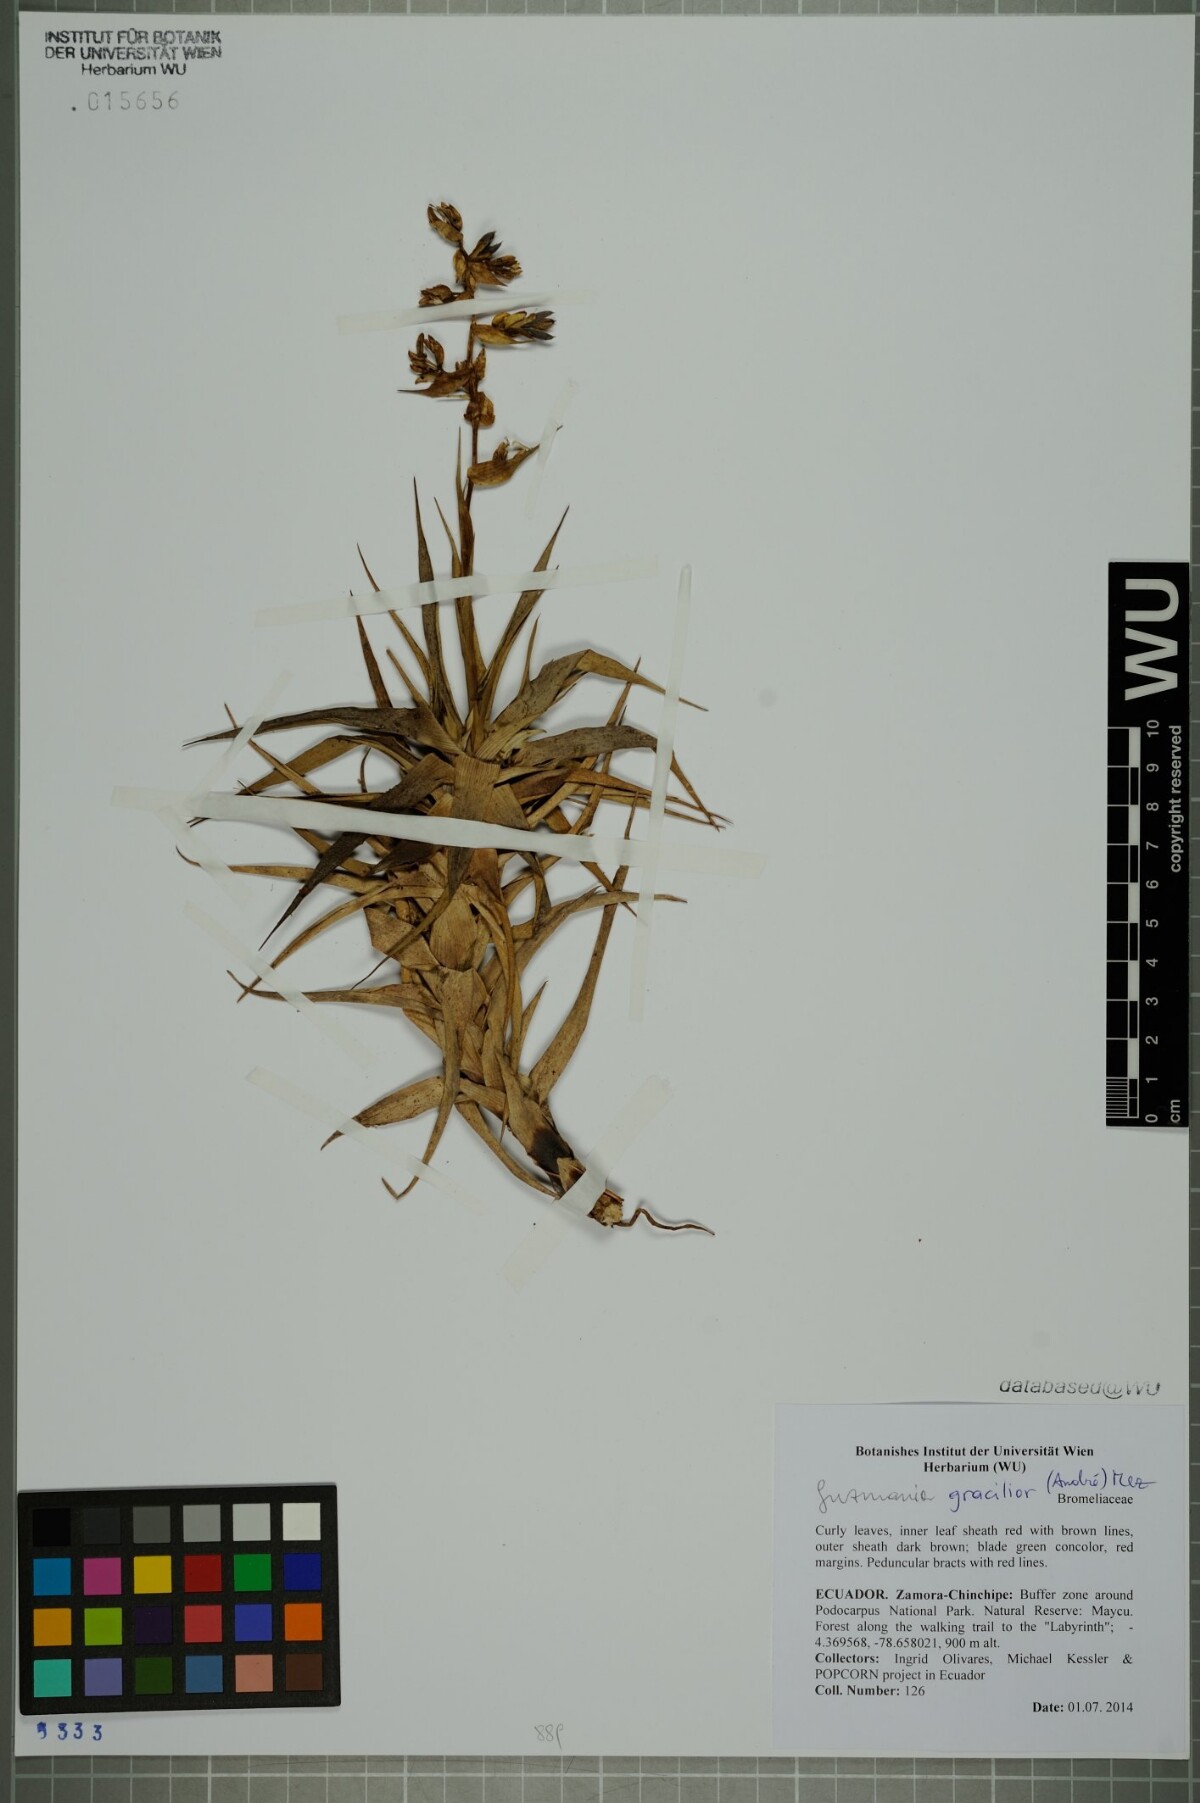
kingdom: Plantae
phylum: Tracheophyta
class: Liliopsida
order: Poales
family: Bromeliaceae
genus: Guzmania
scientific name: Guzmania gracilior
